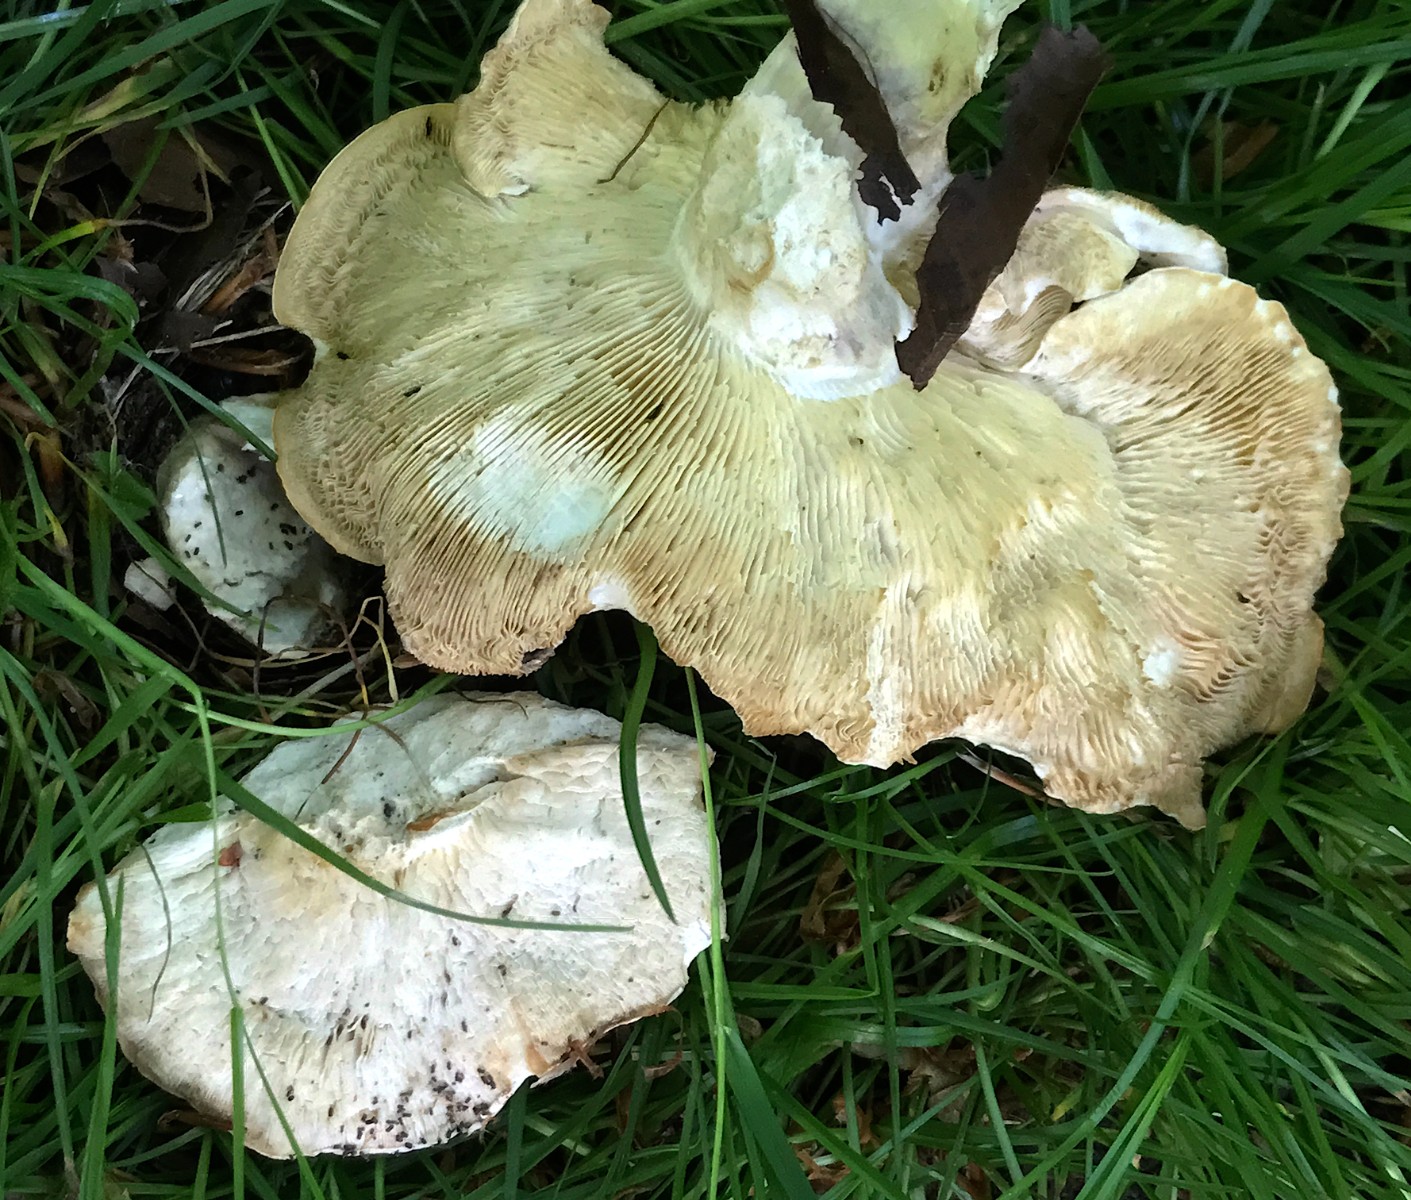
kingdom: Fungi
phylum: Basidiomycota
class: Agaricomycetes
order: Agaricales
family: Lyophyllaceae
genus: Calocybe
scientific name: Calocybe gambosa
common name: vårmusseron
